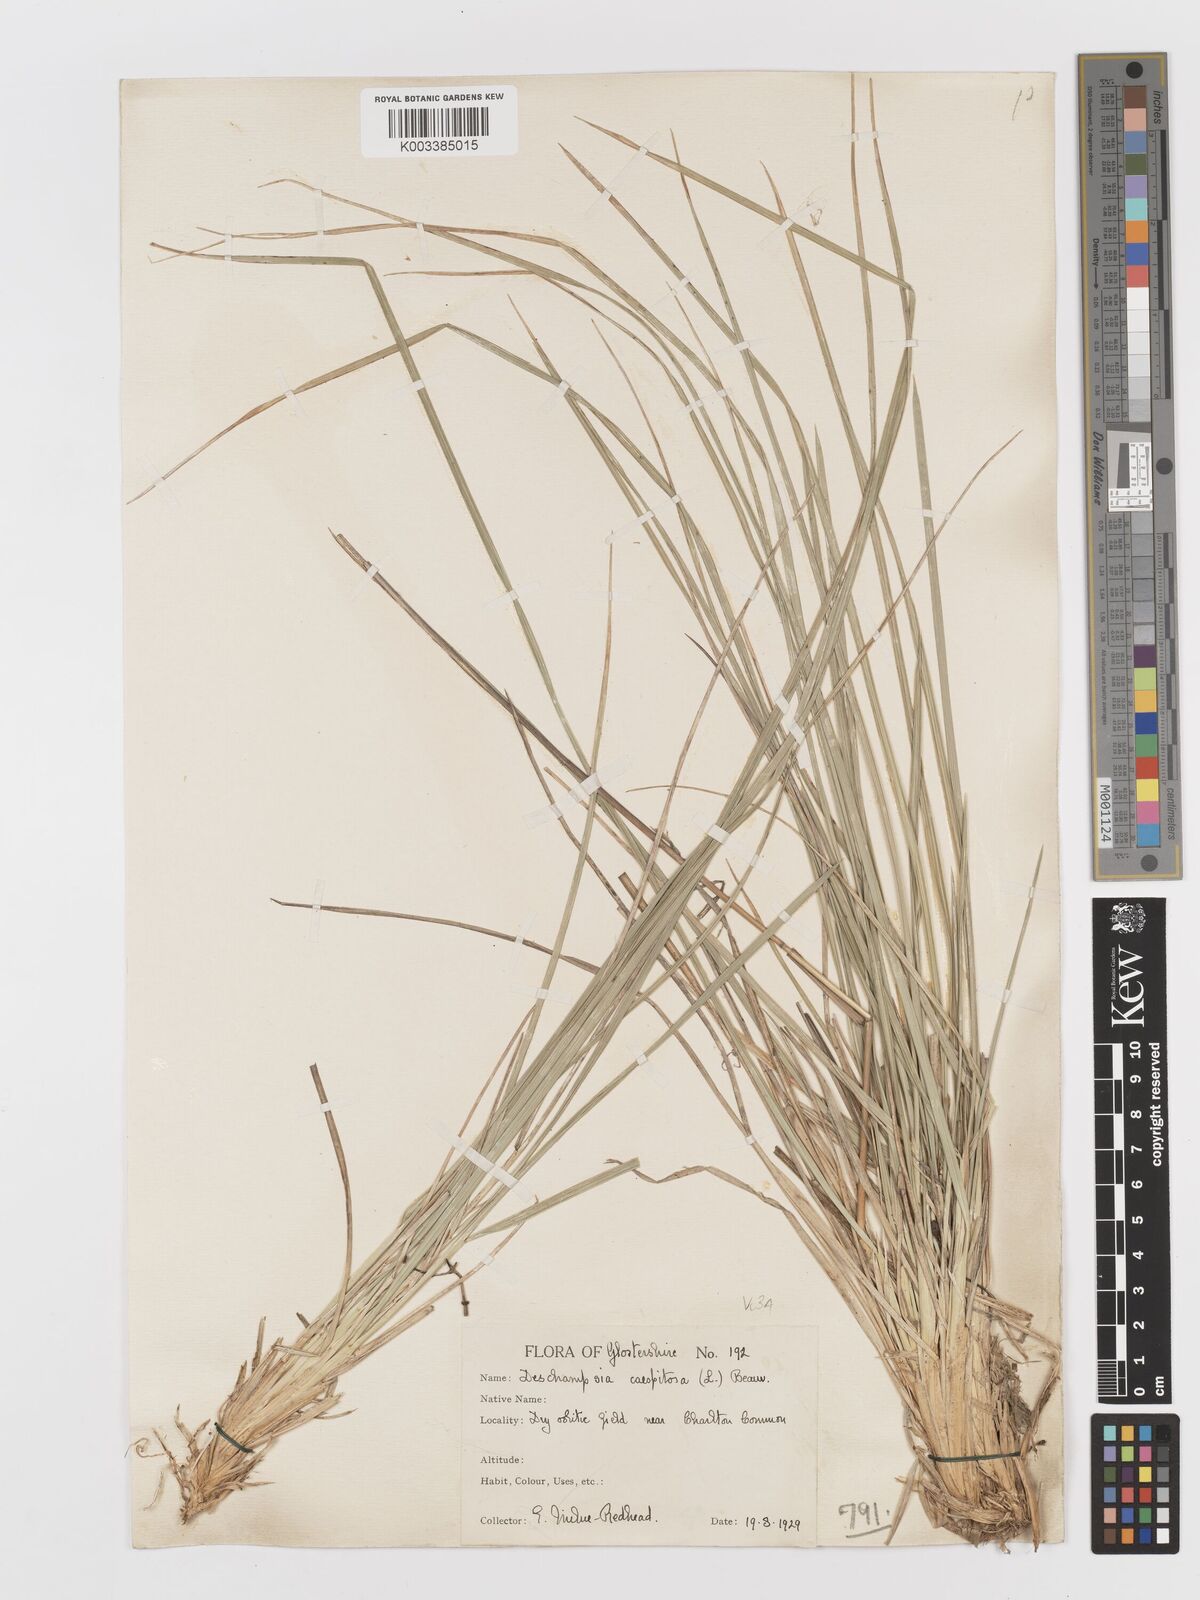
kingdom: Plantae
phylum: Tracheophyta
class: Liliopsida
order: Poales
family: Poaceae
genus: Deschampsia
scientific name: Deschampsia cespitosa
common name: Tufted hair-grass
